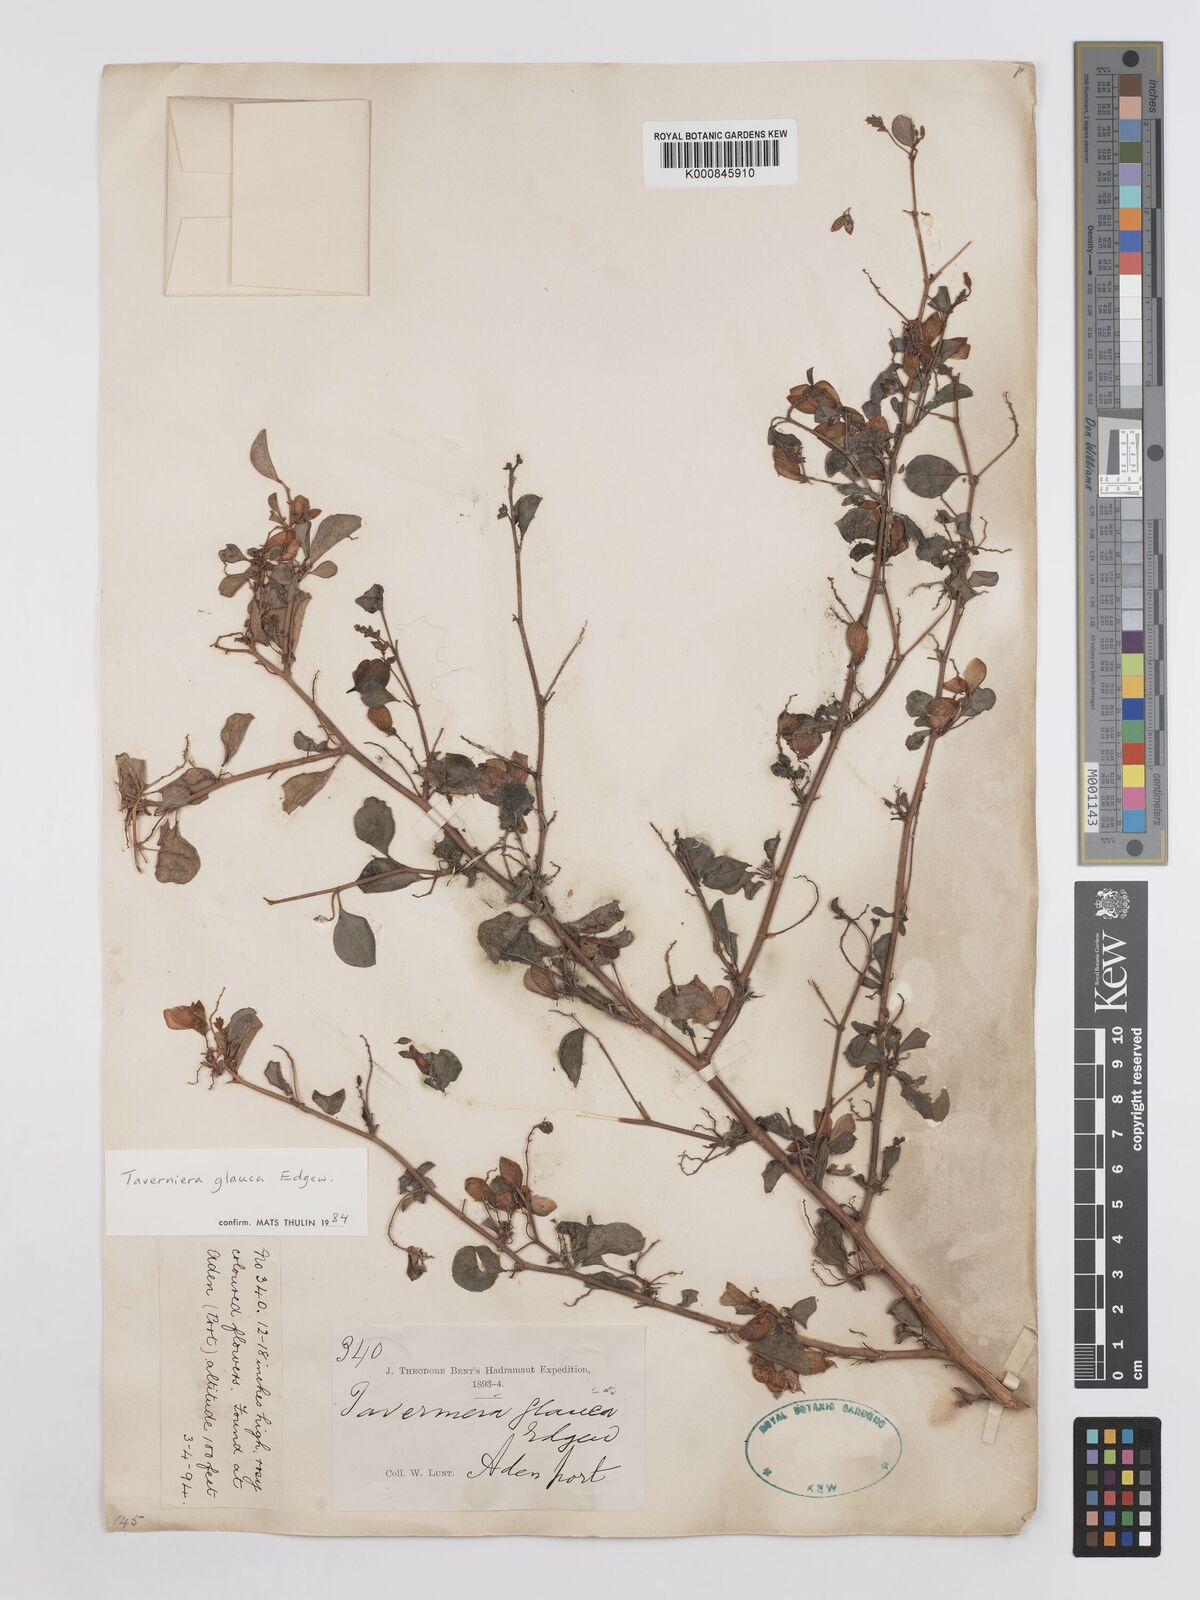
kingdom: Plantae
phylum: Tracheophyta
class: Magnoliopsida
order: Fabales
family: Fabaceae
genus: Taverniera
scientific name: Taverniera glauca
